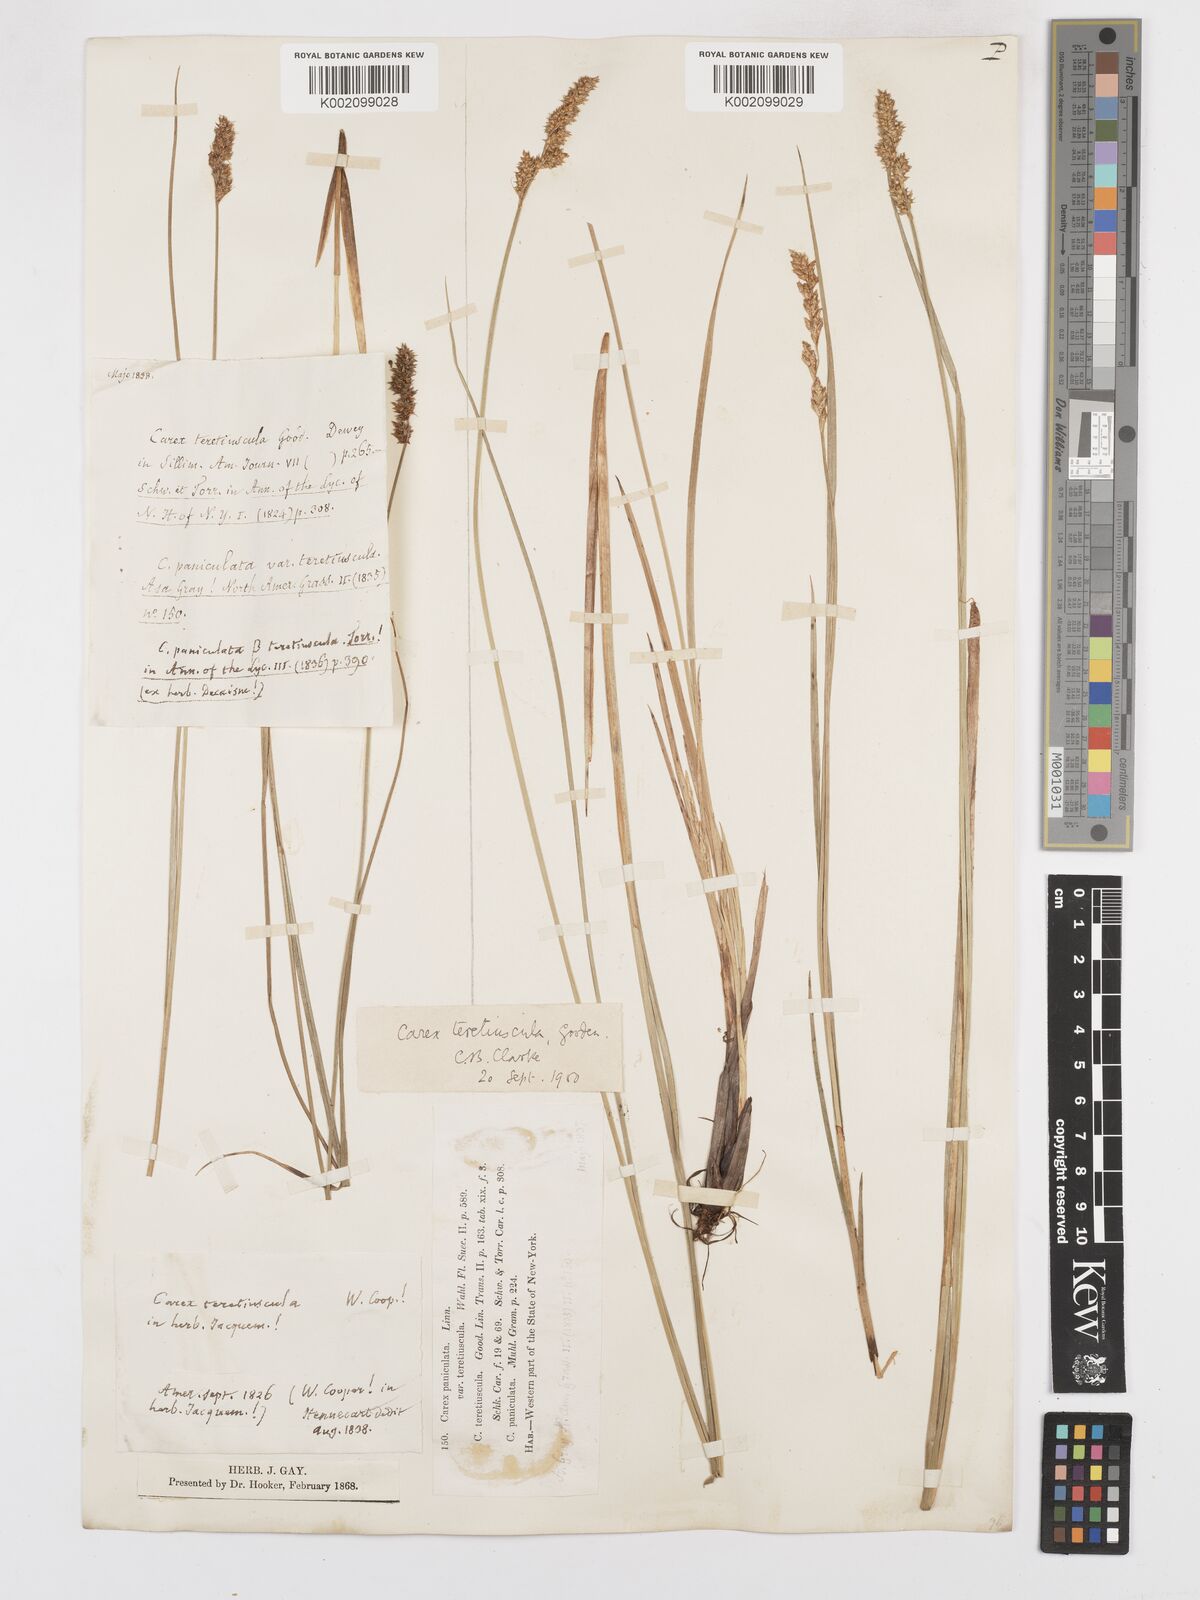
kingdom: Plantae
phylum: Tracheophyta
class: Liliopsida
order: Poales
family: Cyperaceae
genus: Carex
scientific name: Carex diandra
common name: Lesser tussock-sedge
